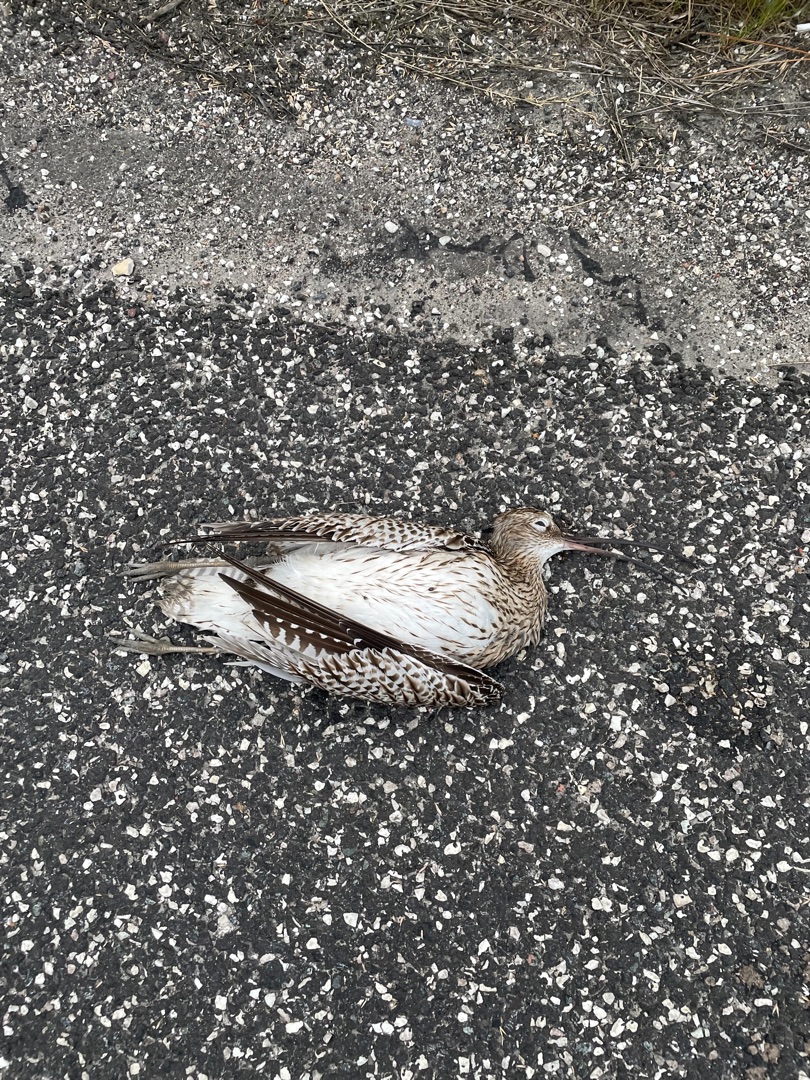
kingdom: Animalia
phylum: Chordata
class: Aves
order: Charadriiformes
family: Scolopacidae
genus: Numenius
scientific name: Numenius arquata
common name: Storspove
